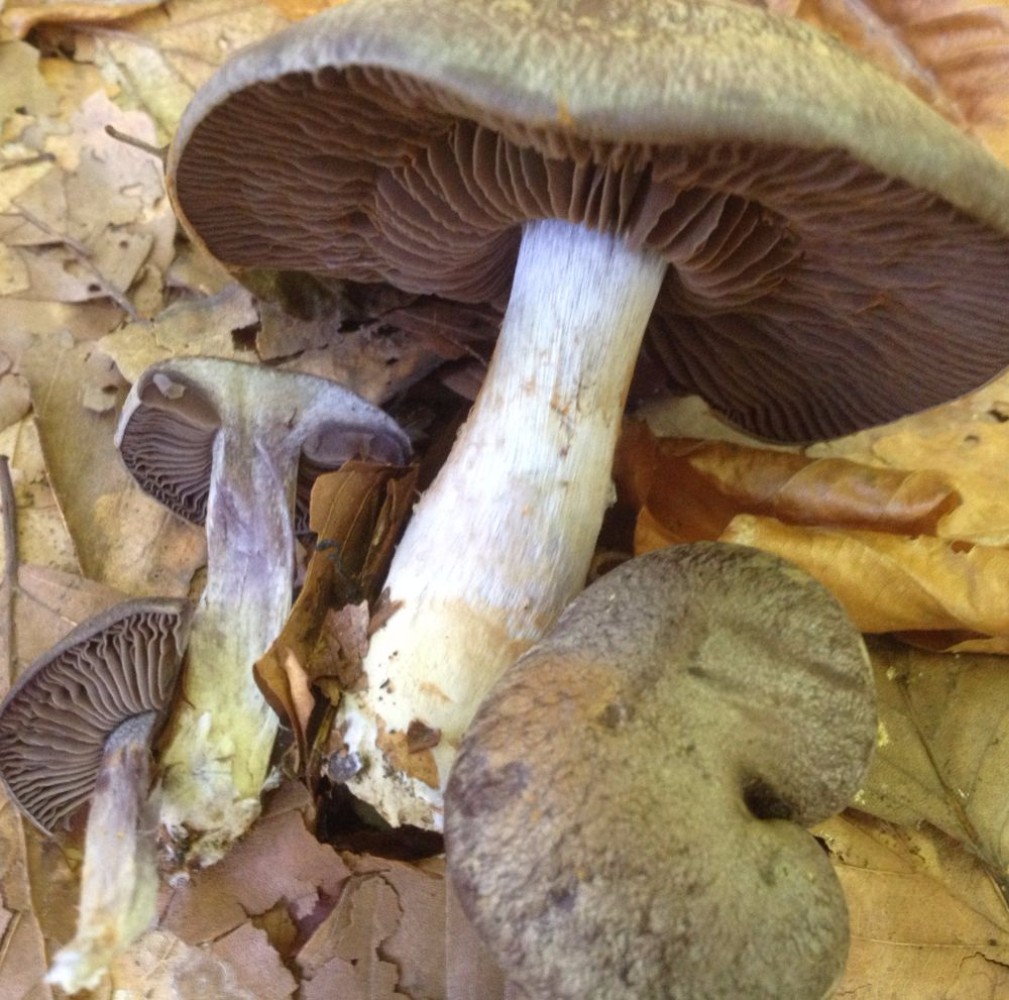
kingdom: Fungi
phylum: Basidiomycota
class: Agaricomycetes
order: Agaricales
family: Cortinariaceae
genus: Cortinarius
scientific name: Cortinarius
